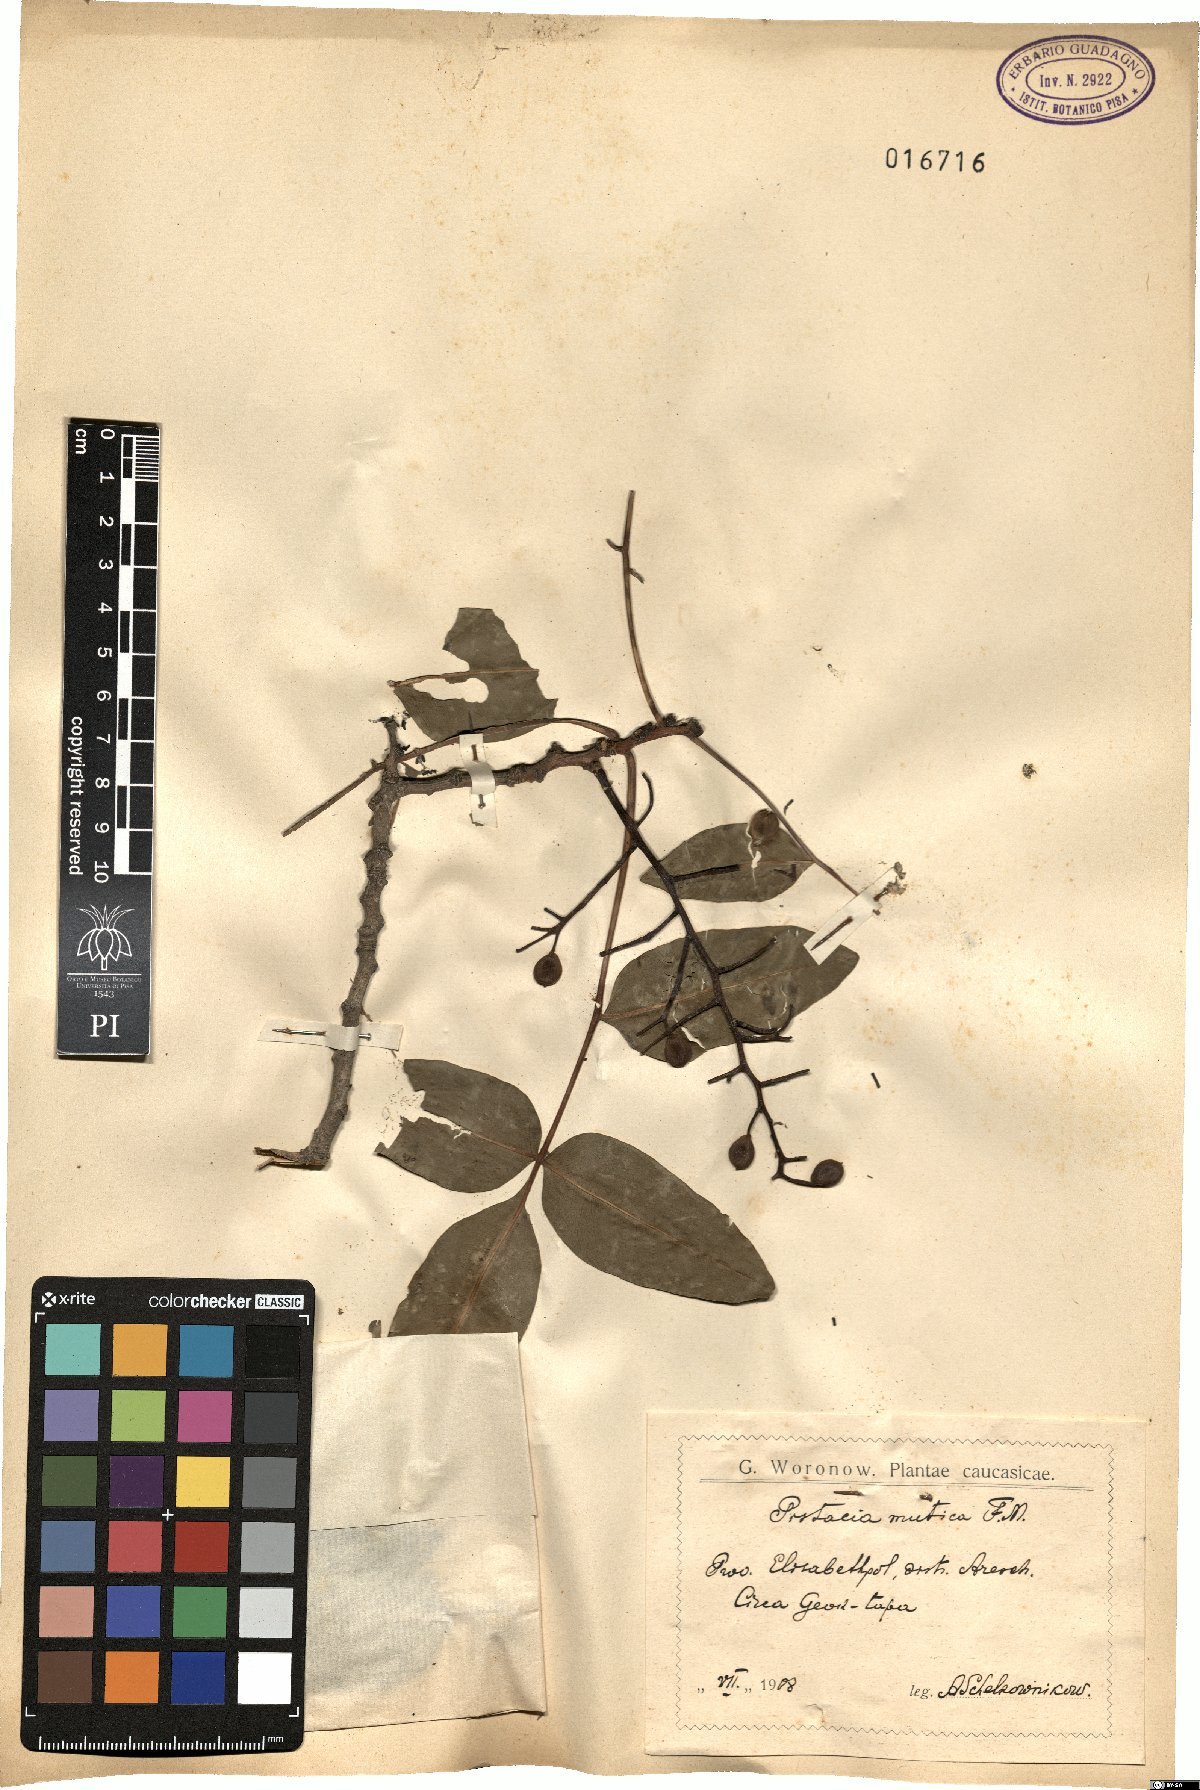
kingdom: Plantae
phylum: Tracheophyta
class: Magnoliopsida
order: Sapindales
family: Anacardiaceae
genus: Pistacia
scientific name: Pistacia atlantica
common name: Mt. atlas mastic tree
